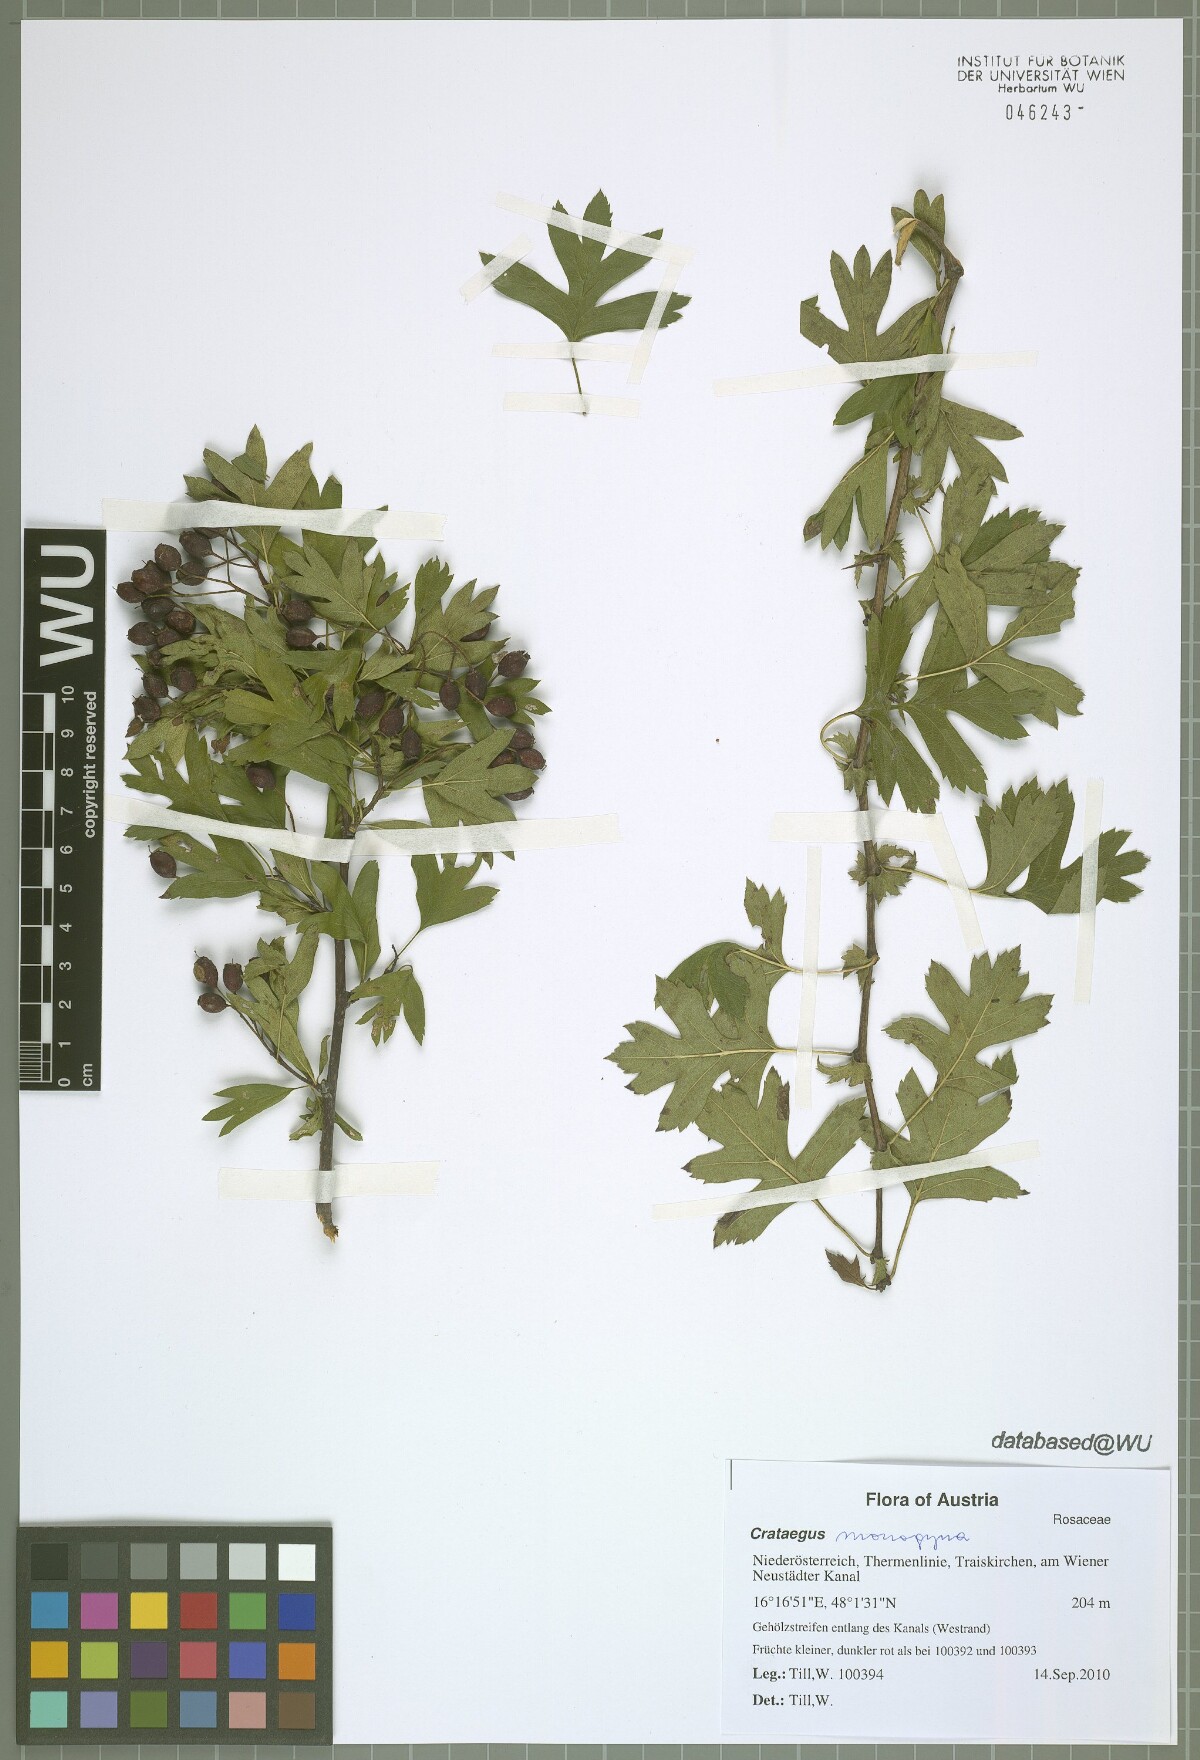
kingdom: Plantae
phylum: Tracheophyta
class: Magnoliopsida
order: Rosales
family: Rosaceae
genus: Crataegus
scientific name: Crataegus monogyna
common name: Hawthorn
